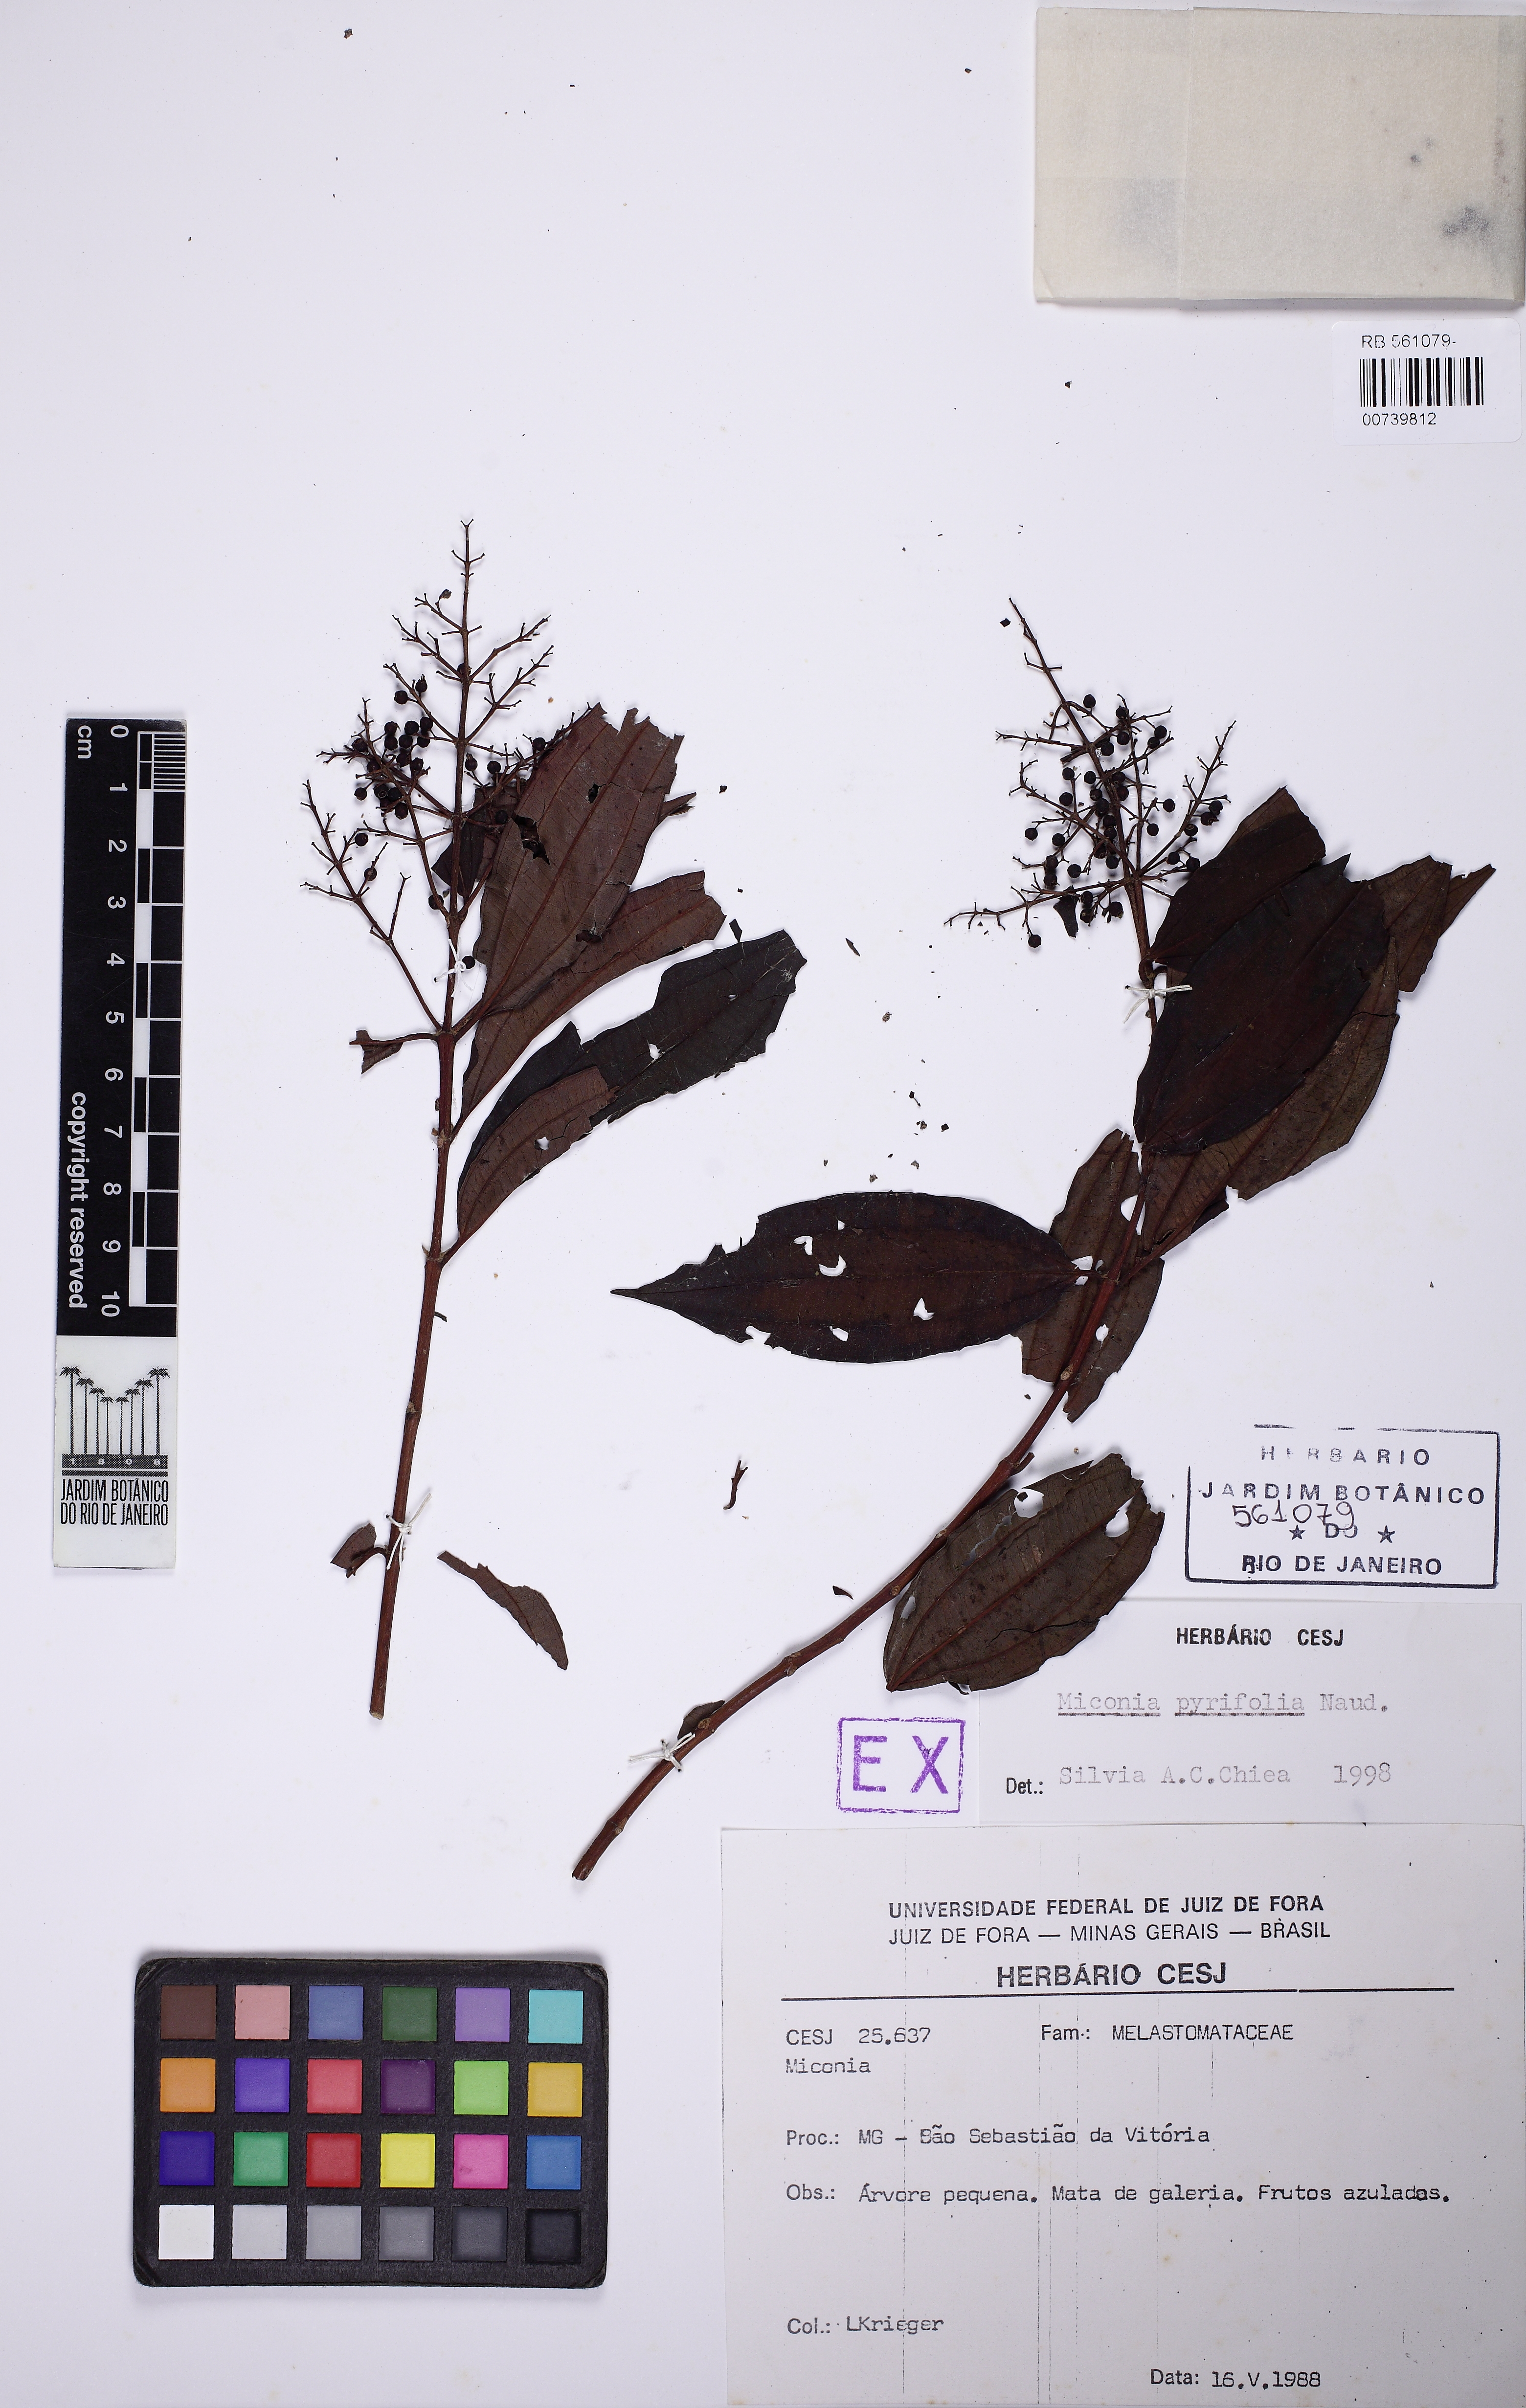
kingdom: Plantae
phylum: Tracheophyta
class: Magnoliopsida
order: Myrtales
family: Melastomataceae
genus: Miconia
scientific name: Miconia pyrifolia
